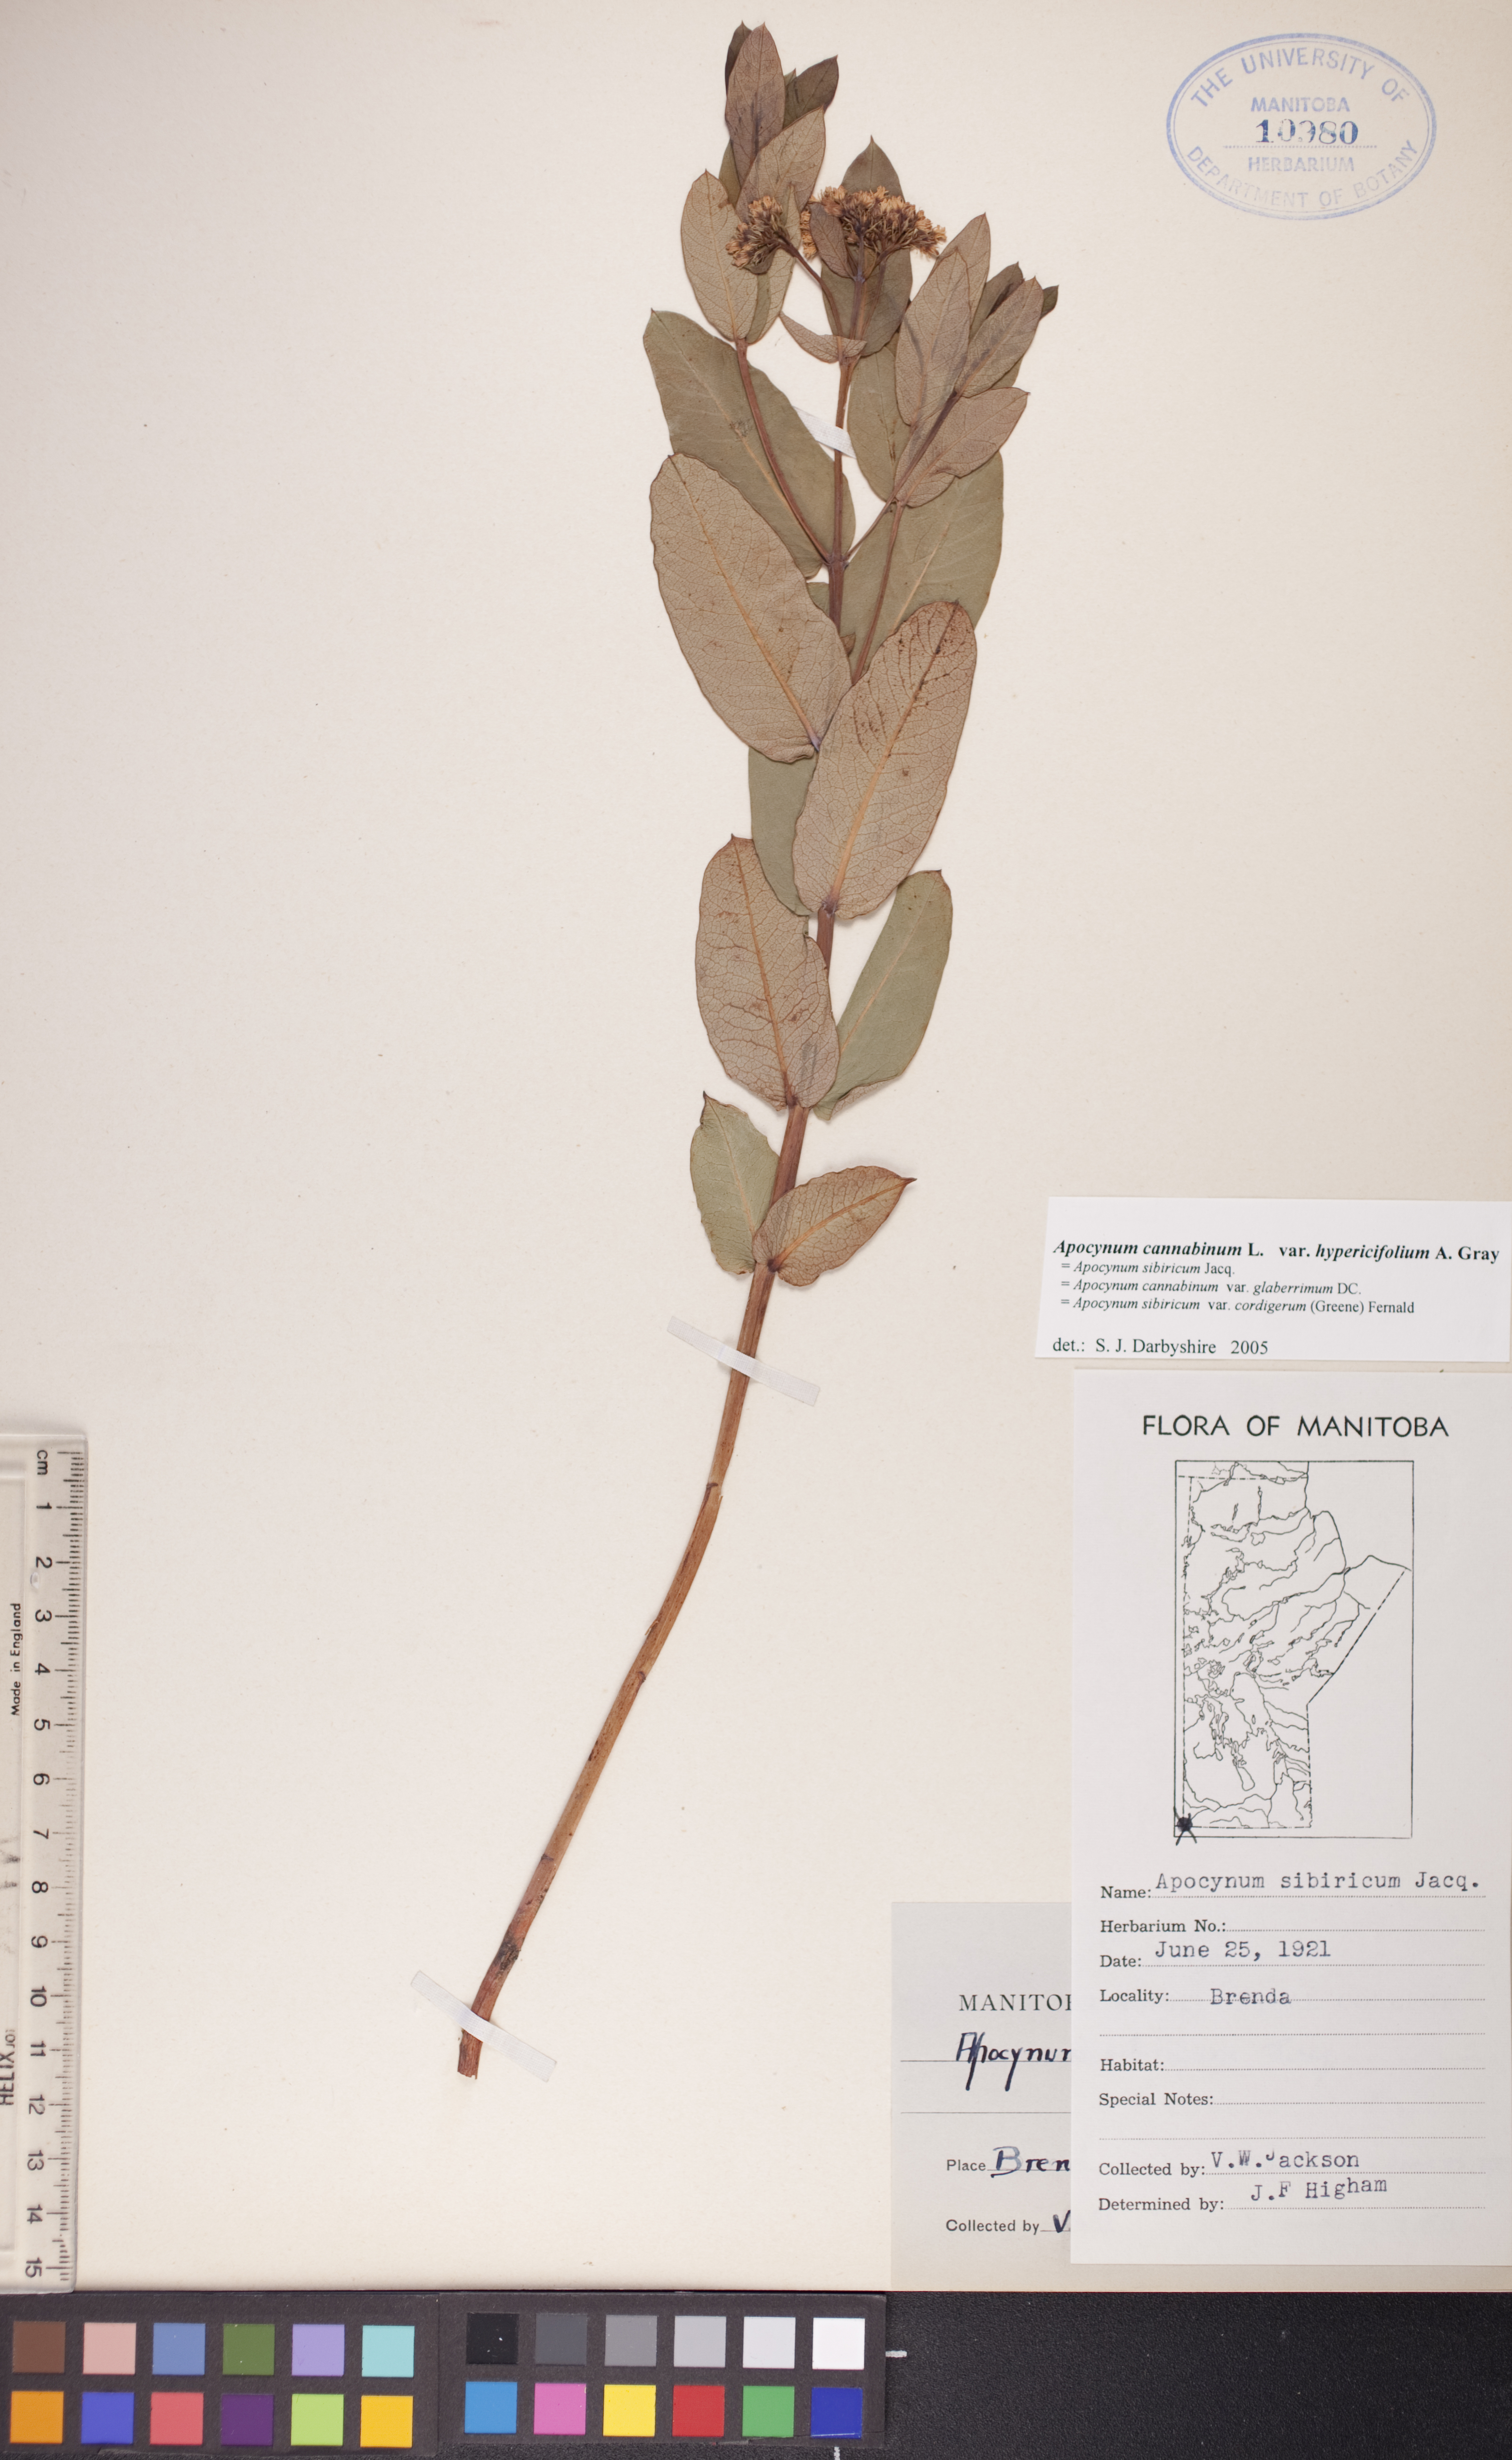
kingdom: Plantae
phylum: Tracheophyta
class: Magnoliopsida
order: Gentianales
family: Apocynaceae
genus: Apocynum
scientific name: Apocynum cannabinum
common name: Hemp dogbane
